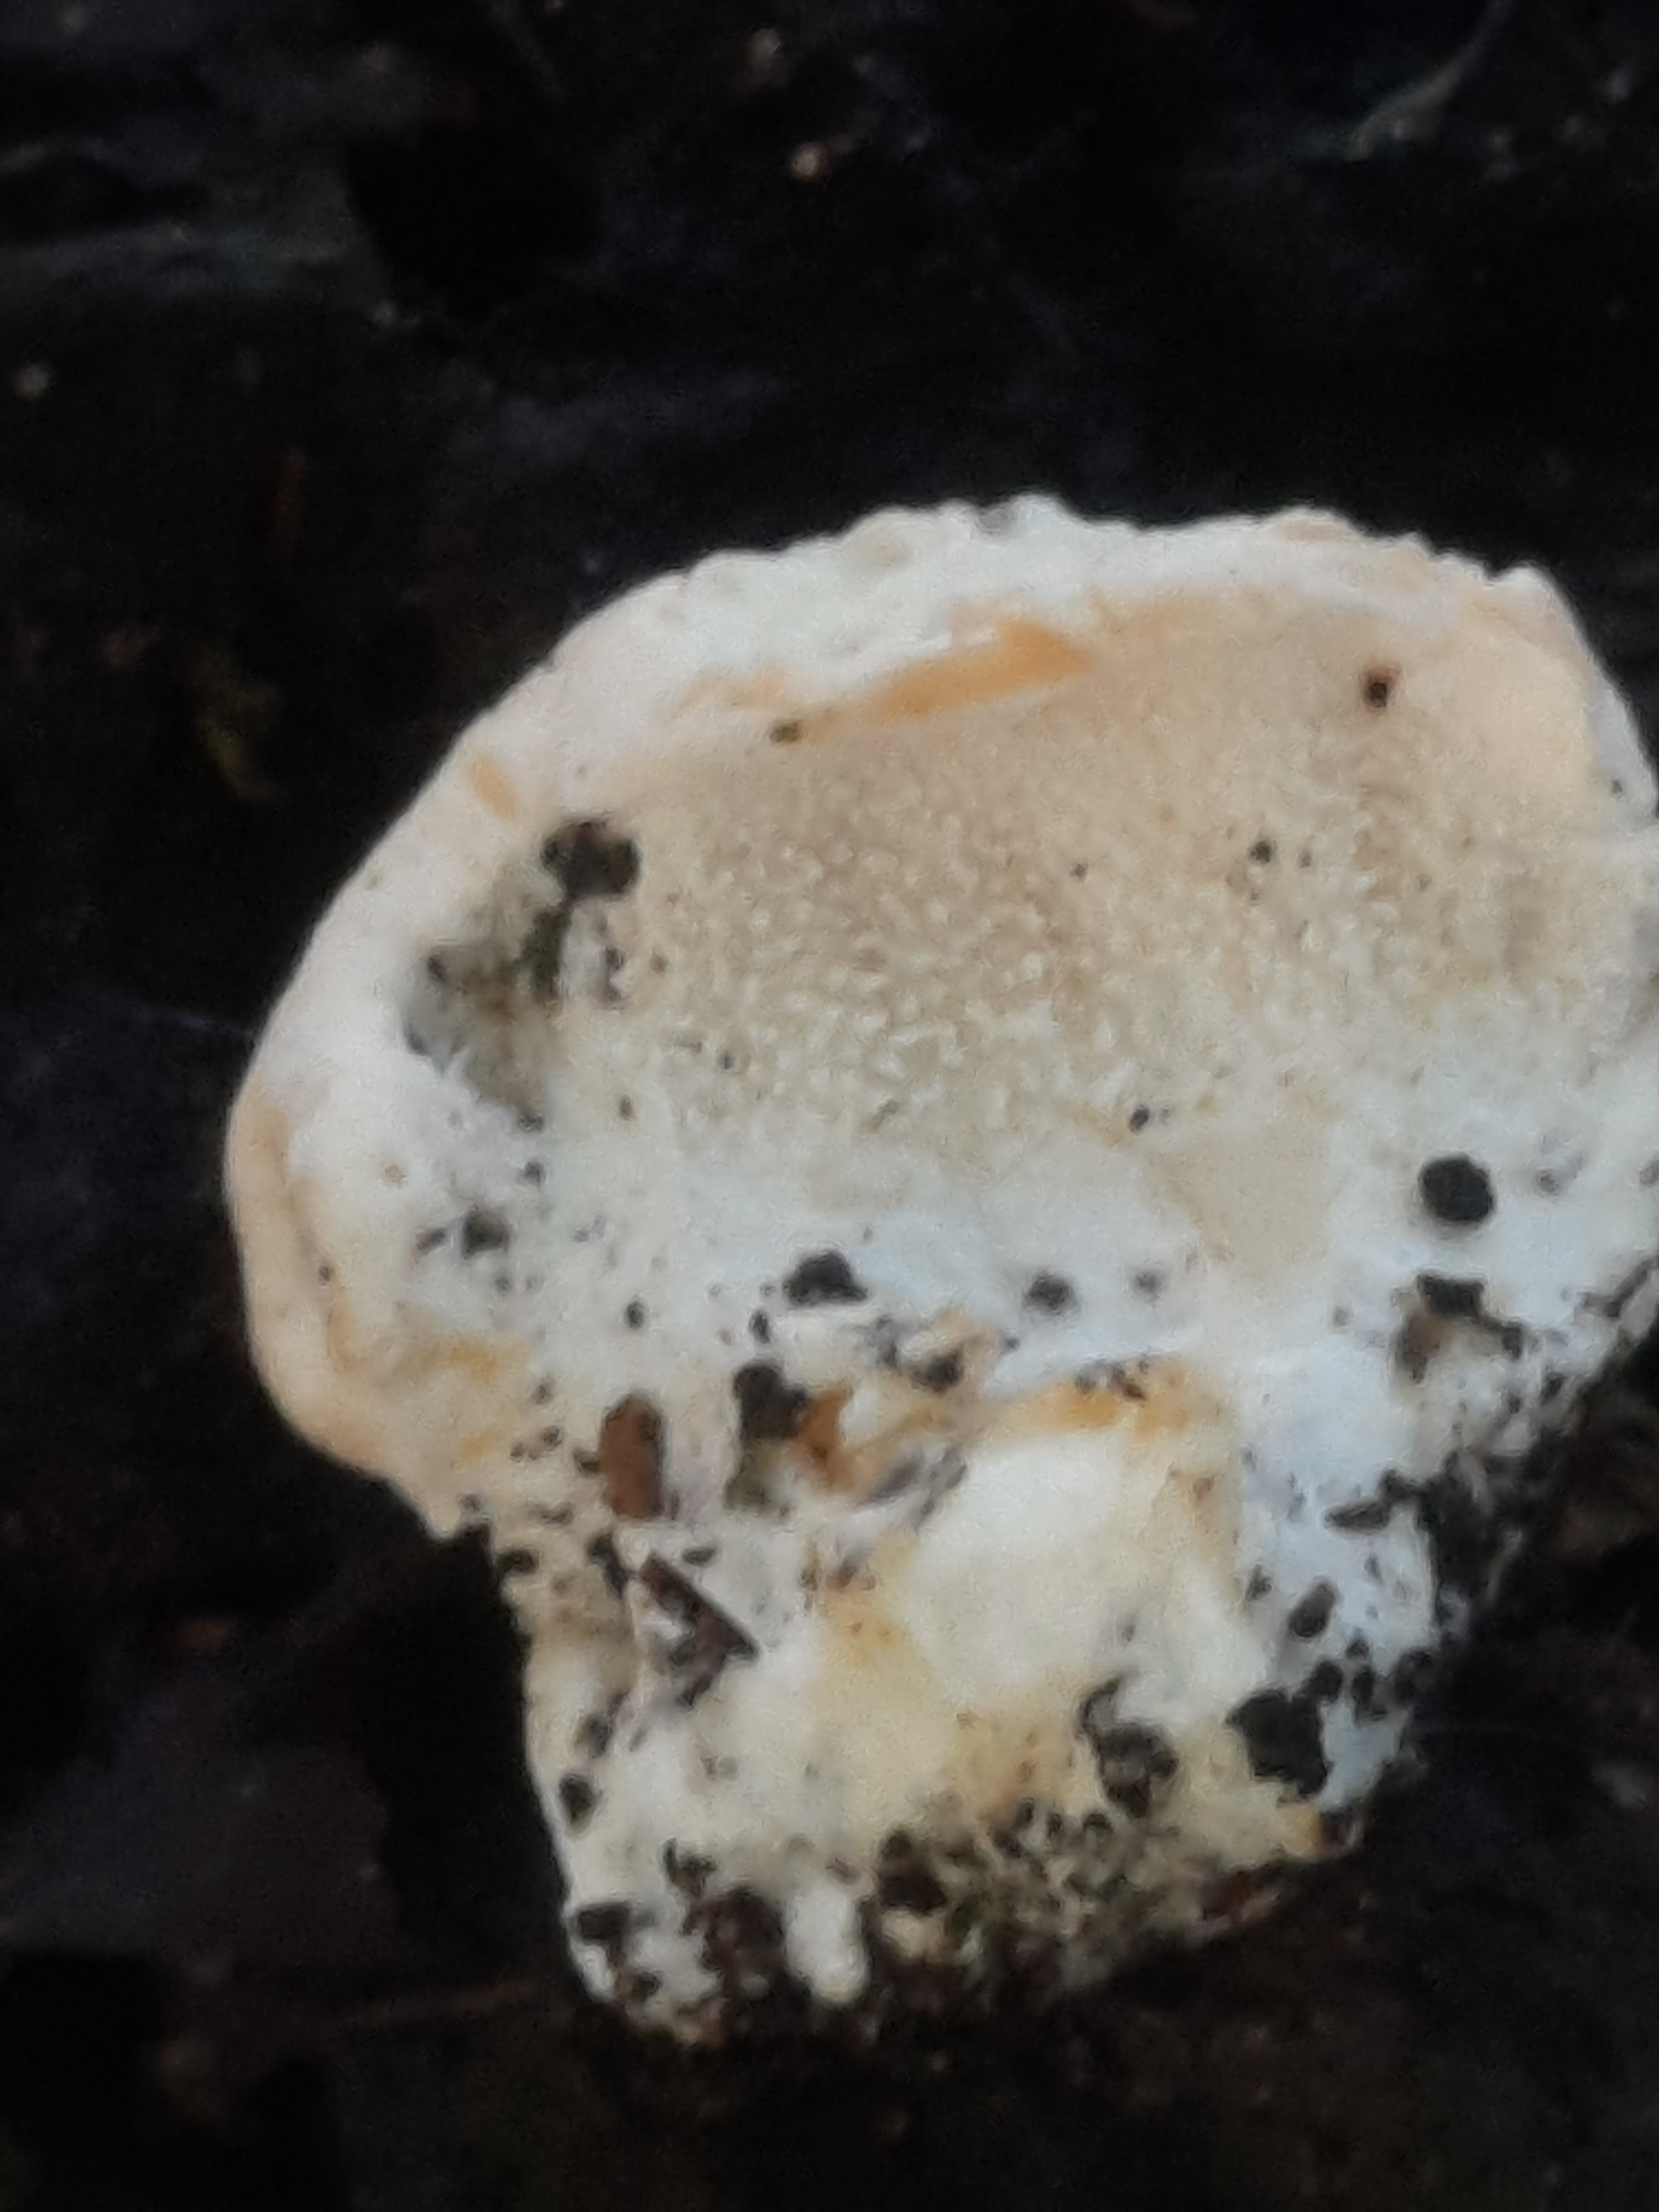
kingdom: Fungi
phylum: Basidiomycota
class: Agaricomycetes
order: Cantharellales
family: Hydnaceae
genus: Hydnum
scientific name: Hydnum
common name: pigsvamp
